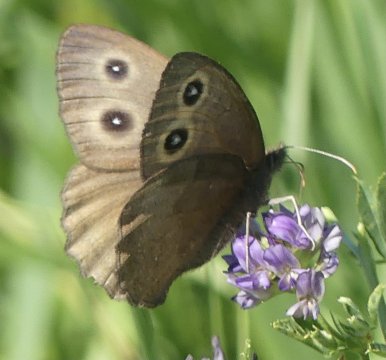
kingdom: Animalia
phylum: Arthropoda
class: Insecta
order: Lepidoptera
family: Nymphalidae
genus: Cercyonis
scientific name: Cercyonis pegala
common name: Common Wood-Nymph
